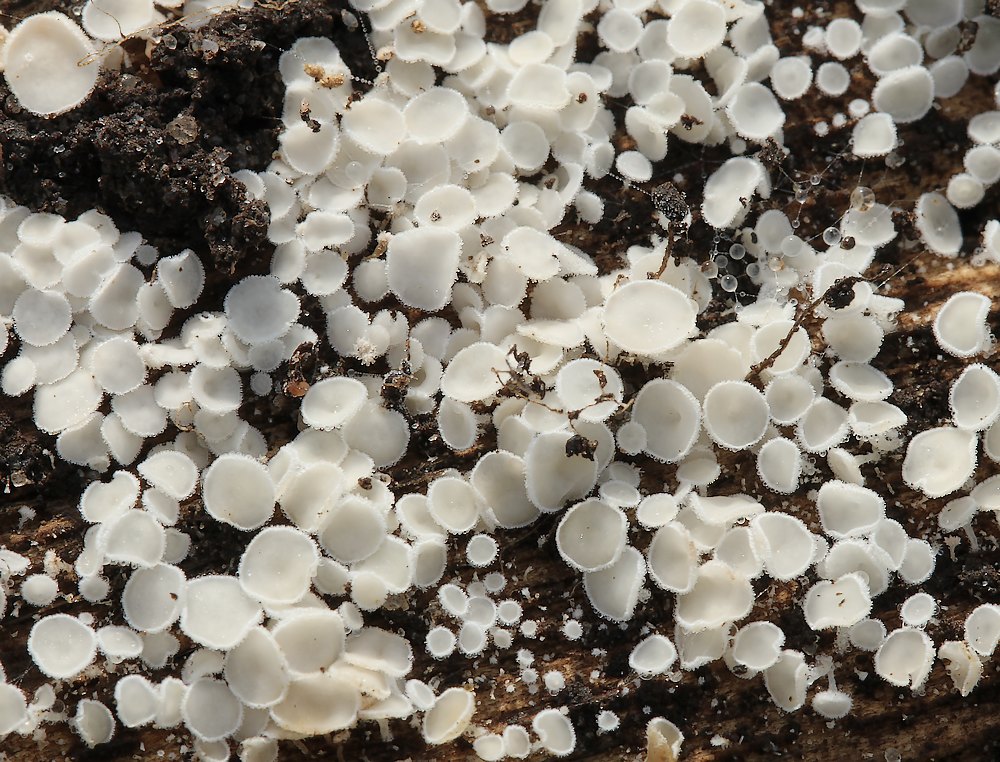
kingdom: Fungi
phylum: Ascomycota
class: Leotiomycetes
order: Helotiales
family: Hyaloscyphaceae
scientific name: Hyaloscyphaceae
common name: frynseskivefamilien
